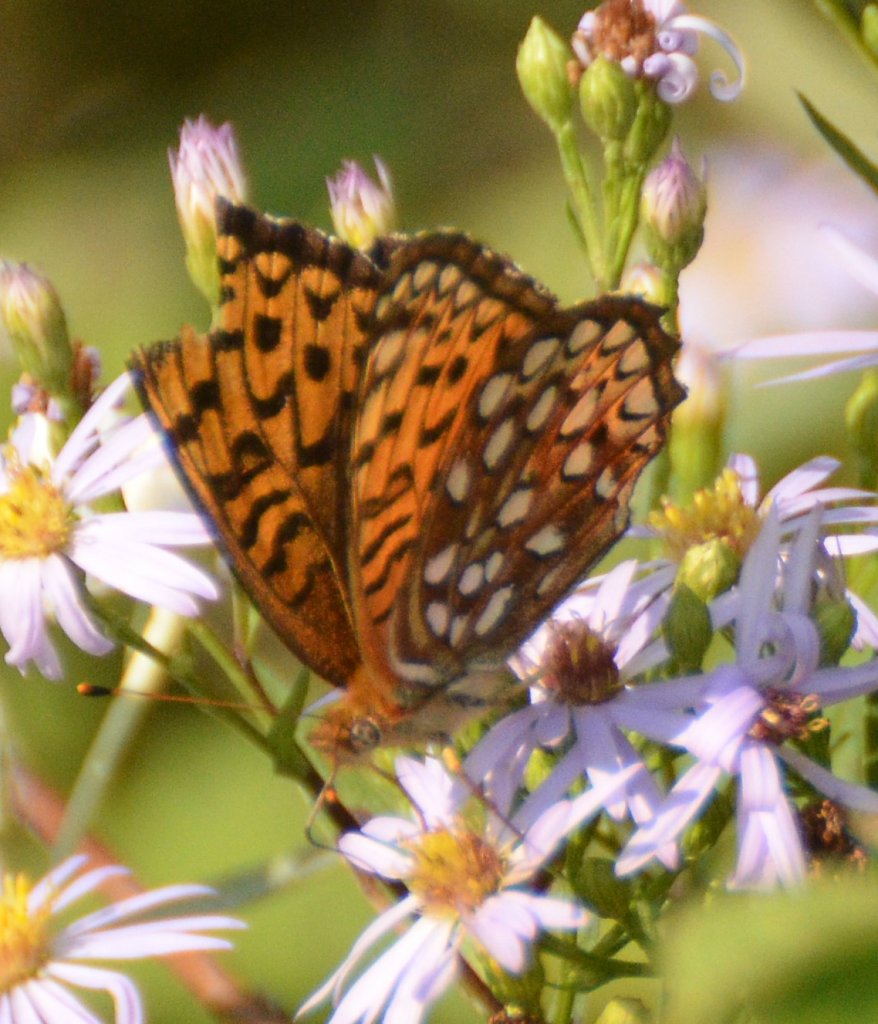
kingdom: Animalia
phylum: Arthropoda
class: Insecta
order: Lepidoptera
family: Nymphalidae
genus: Speyeria
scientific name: Speyeria atlantis
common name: Atlantis Fritillary
